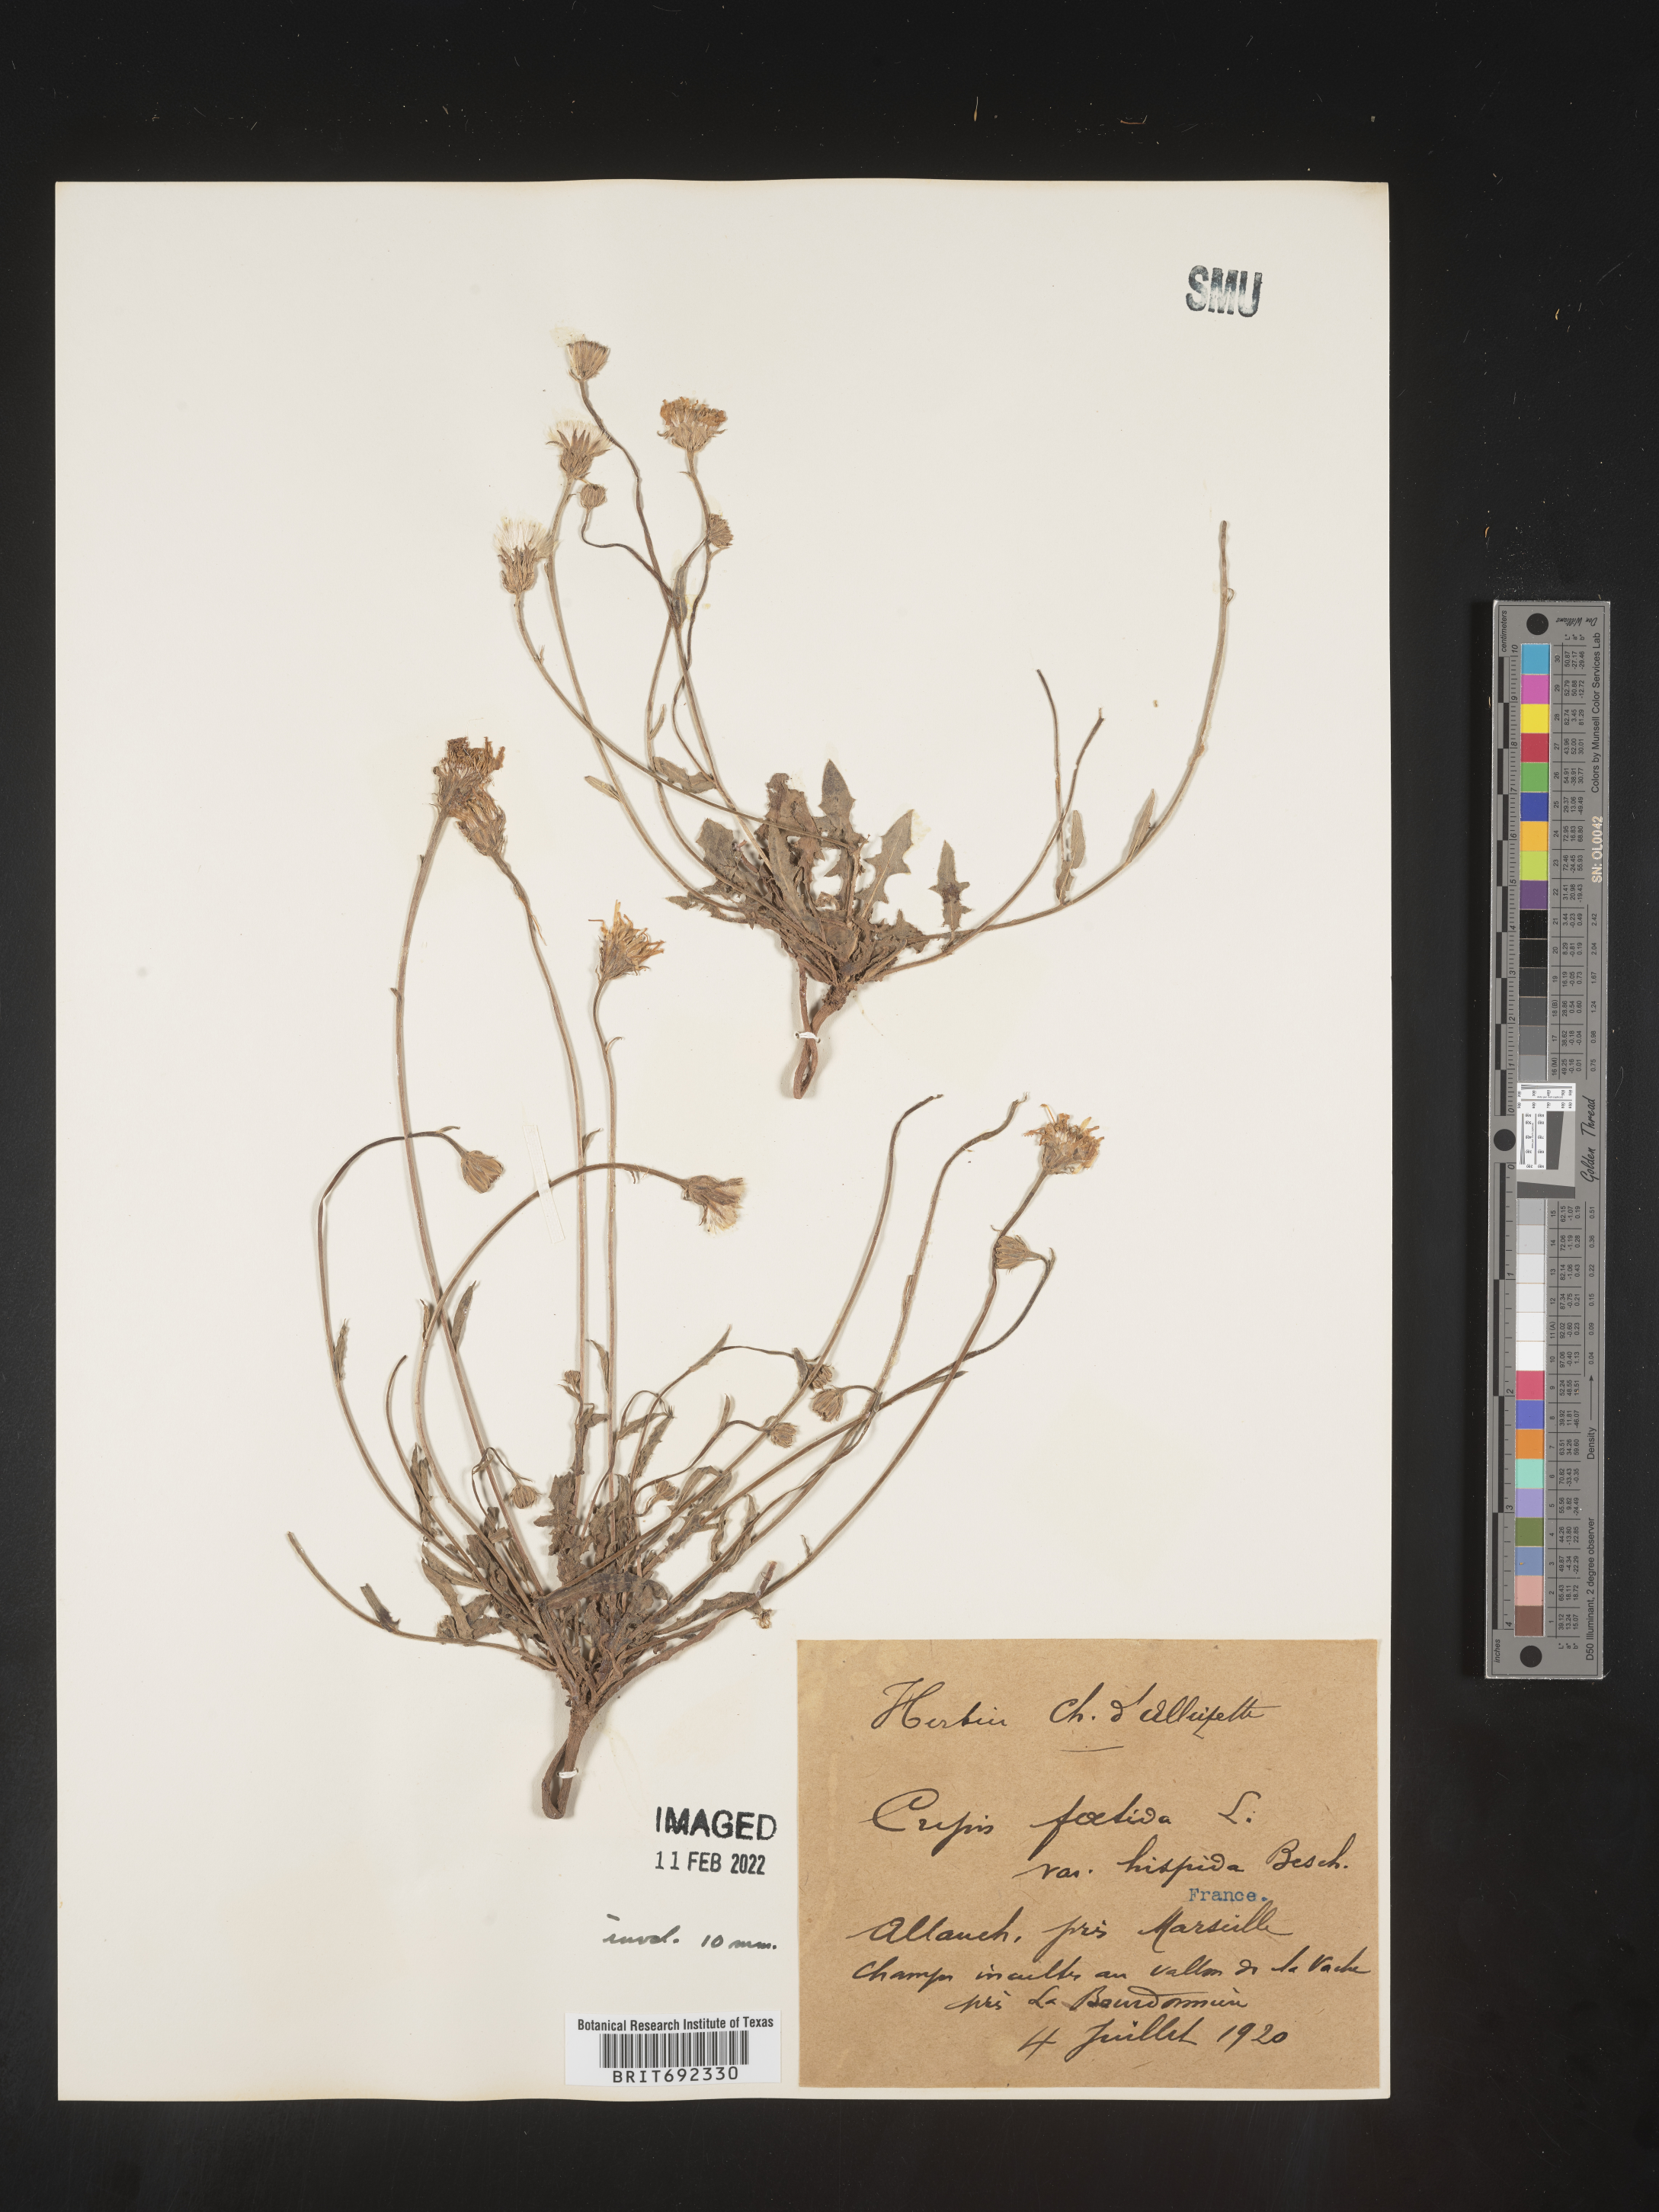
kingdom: Plantae
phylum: Tracheophyta
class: Magnoliopsida
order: Asterales
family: Asteraceae
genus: Crepis
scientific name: Crepis
